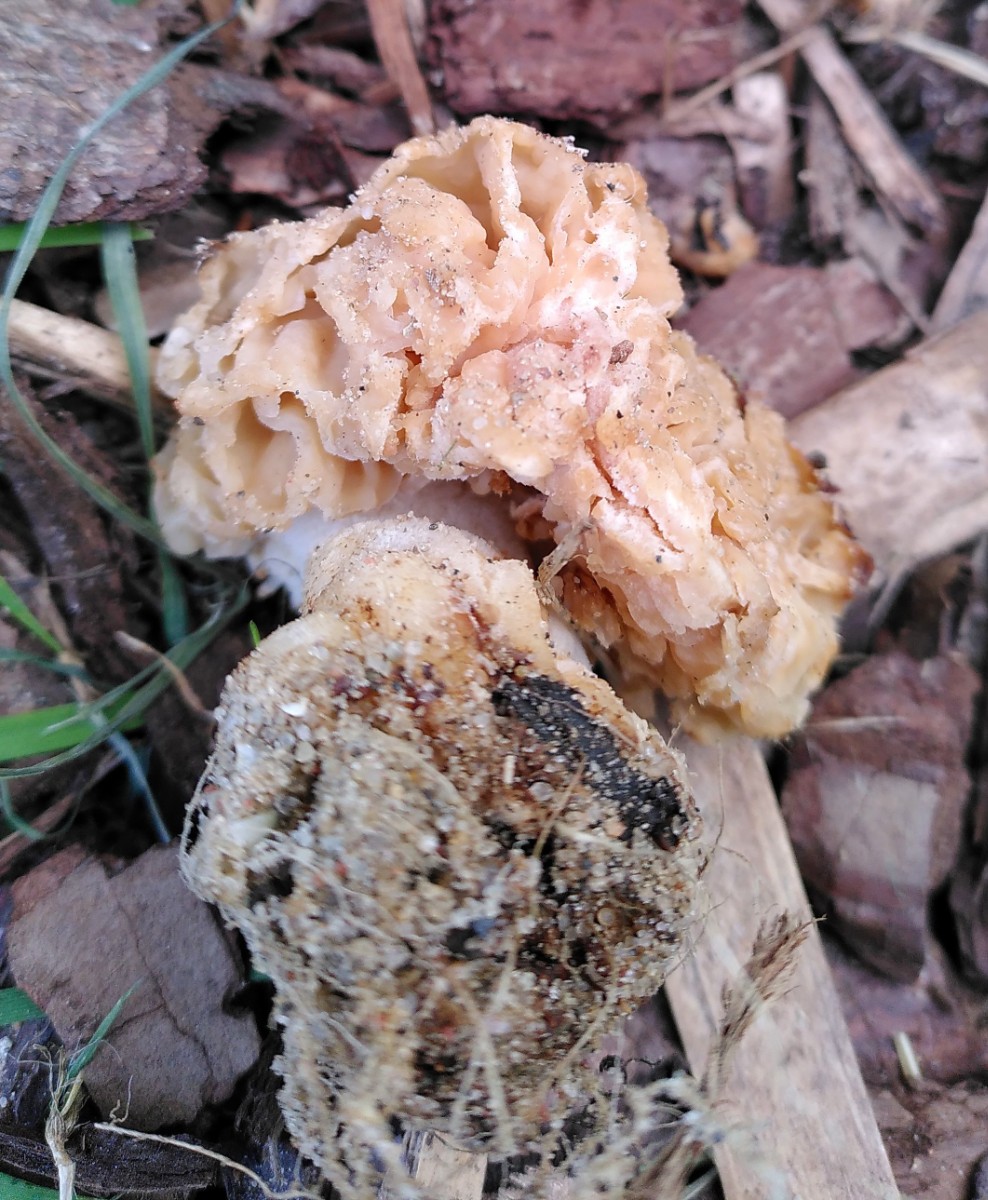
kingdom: Fungi
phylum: Ascomycota
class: Pezizomycetes
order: Pezizales
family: Morchellaceae
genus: Morchella
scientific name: Morchella
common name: morkel
